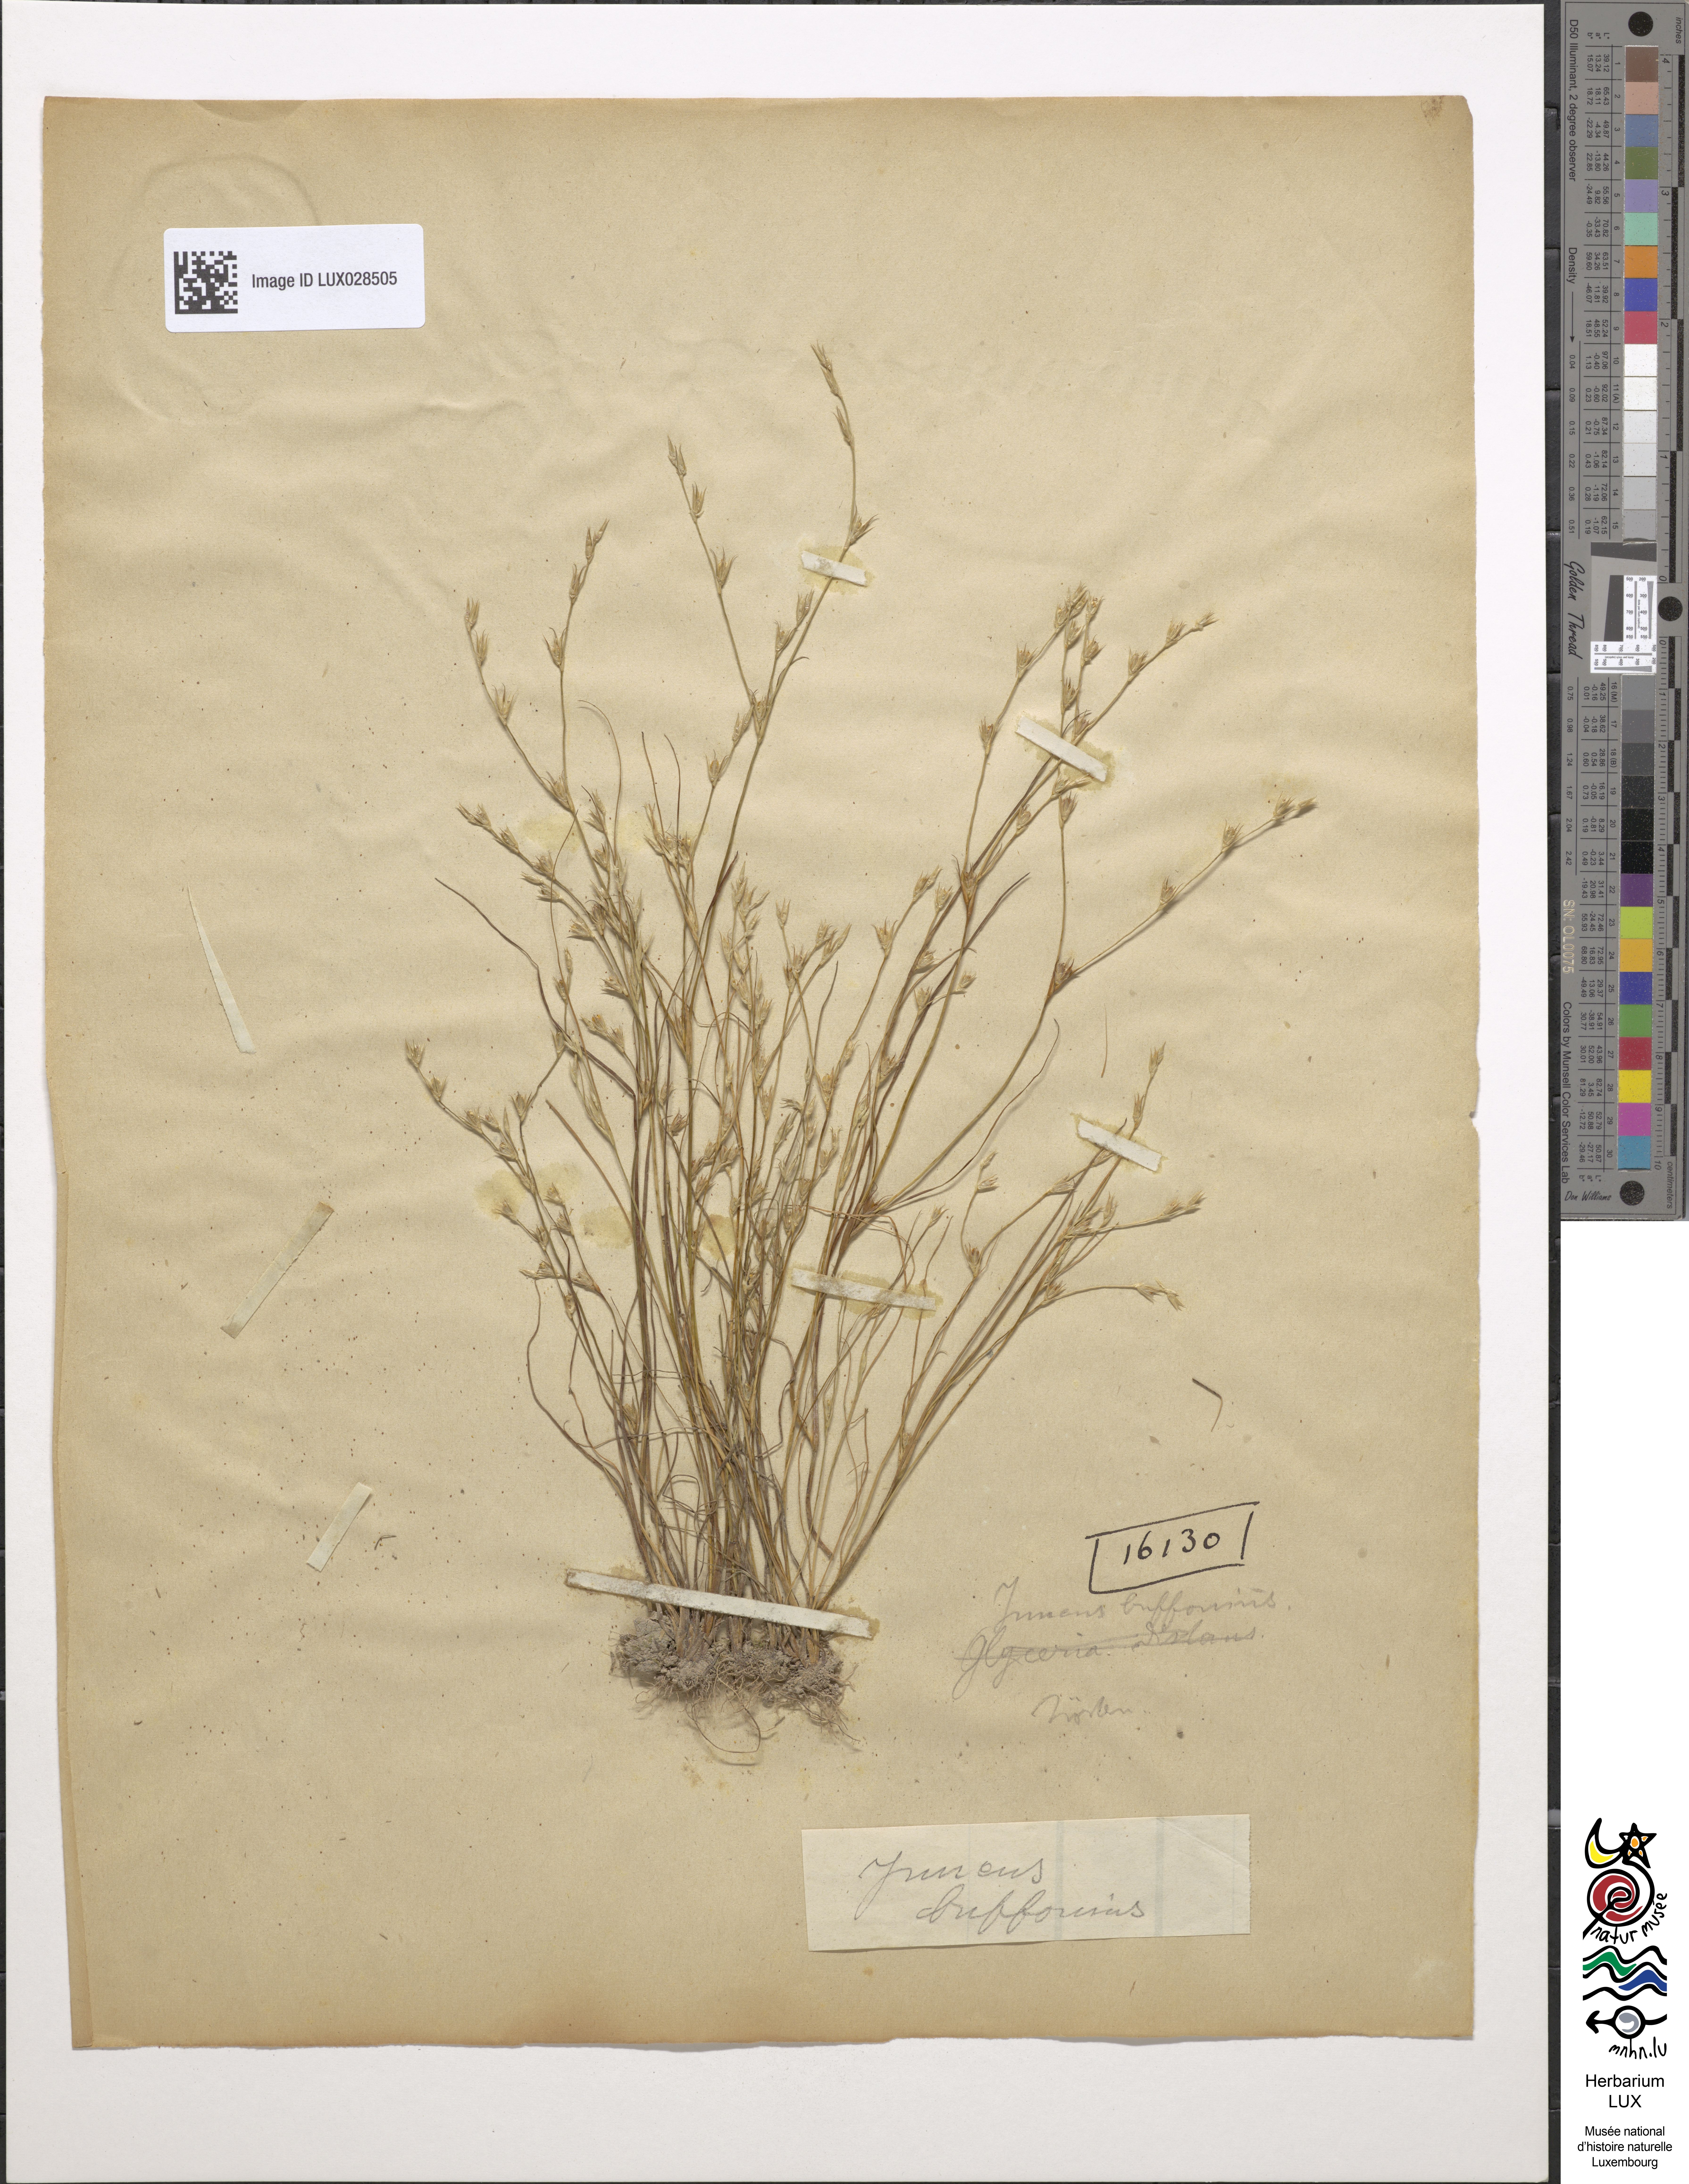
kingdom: Plantae
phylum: Tracheophyta
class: Liliopsida
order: Poales
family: Juncaceae
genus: Juncus
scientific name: Juncus bufonius
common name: Toad rush
